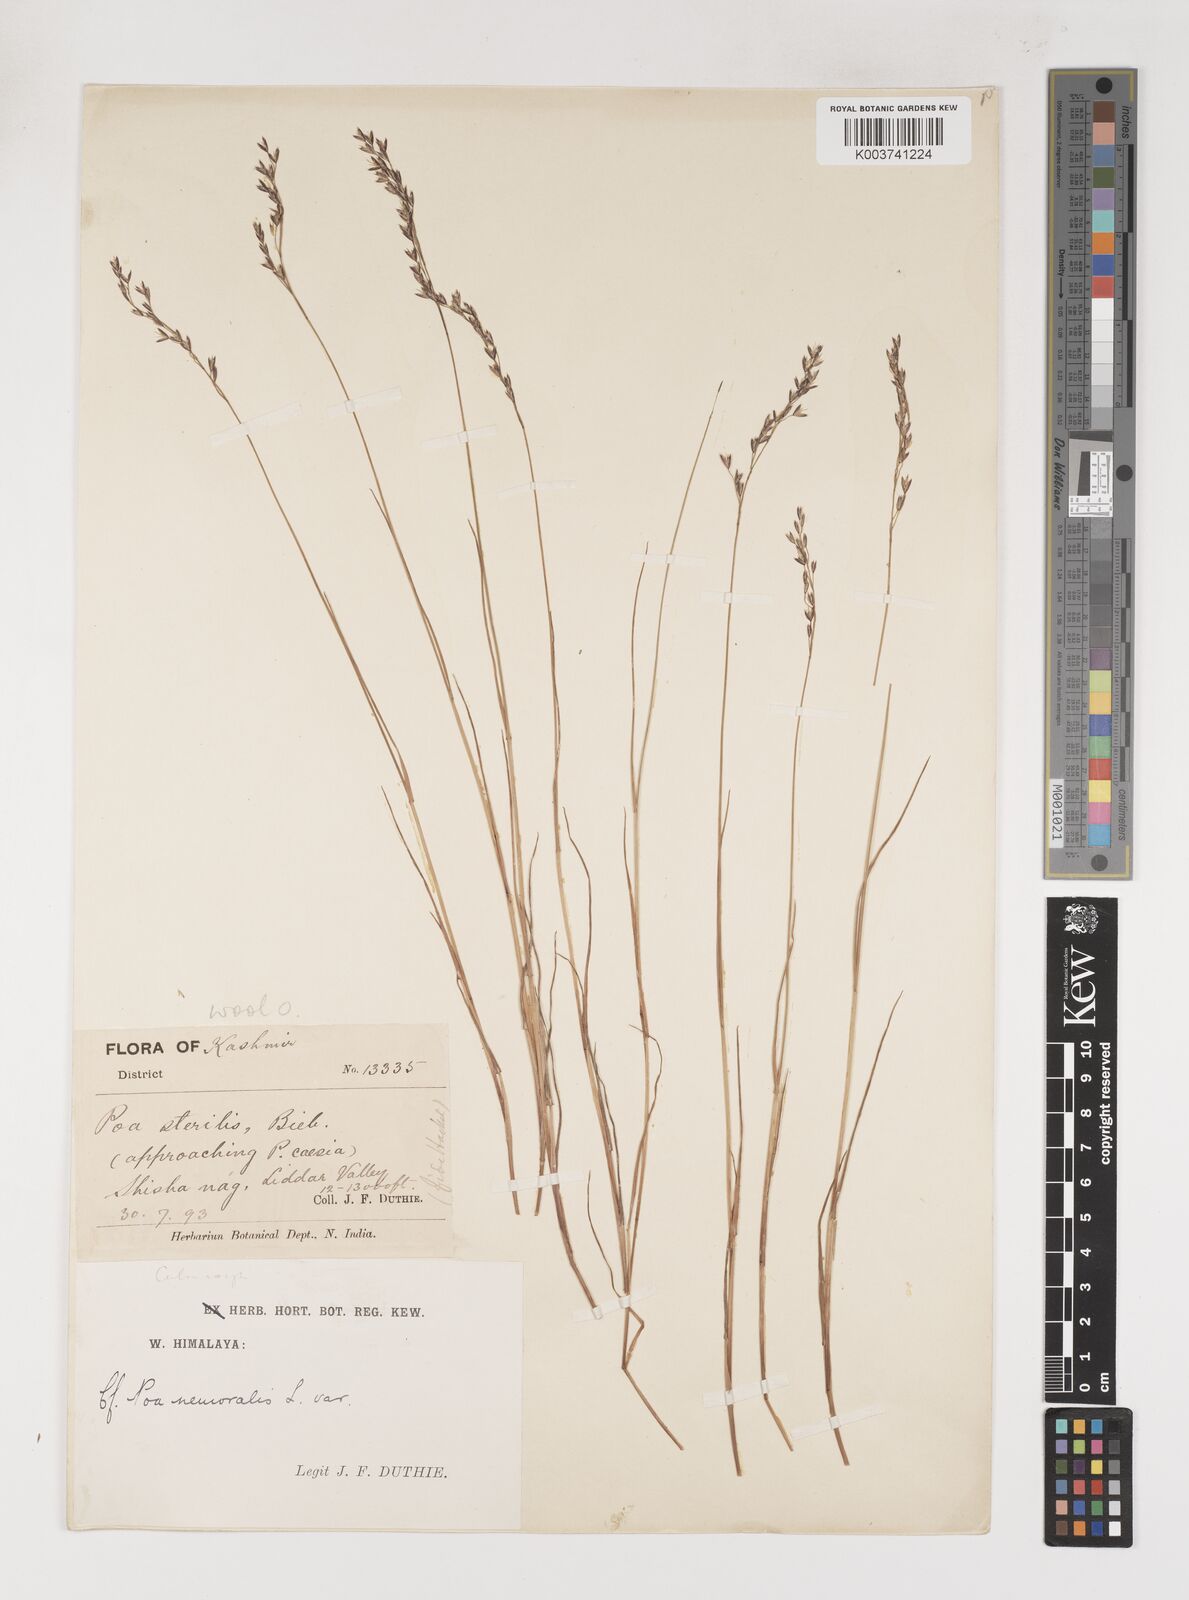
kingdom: Plantae
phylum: Tracheophyta
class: Liliopsida
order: Poales
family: Poaceae
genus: Poa
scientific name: Poa araratica
